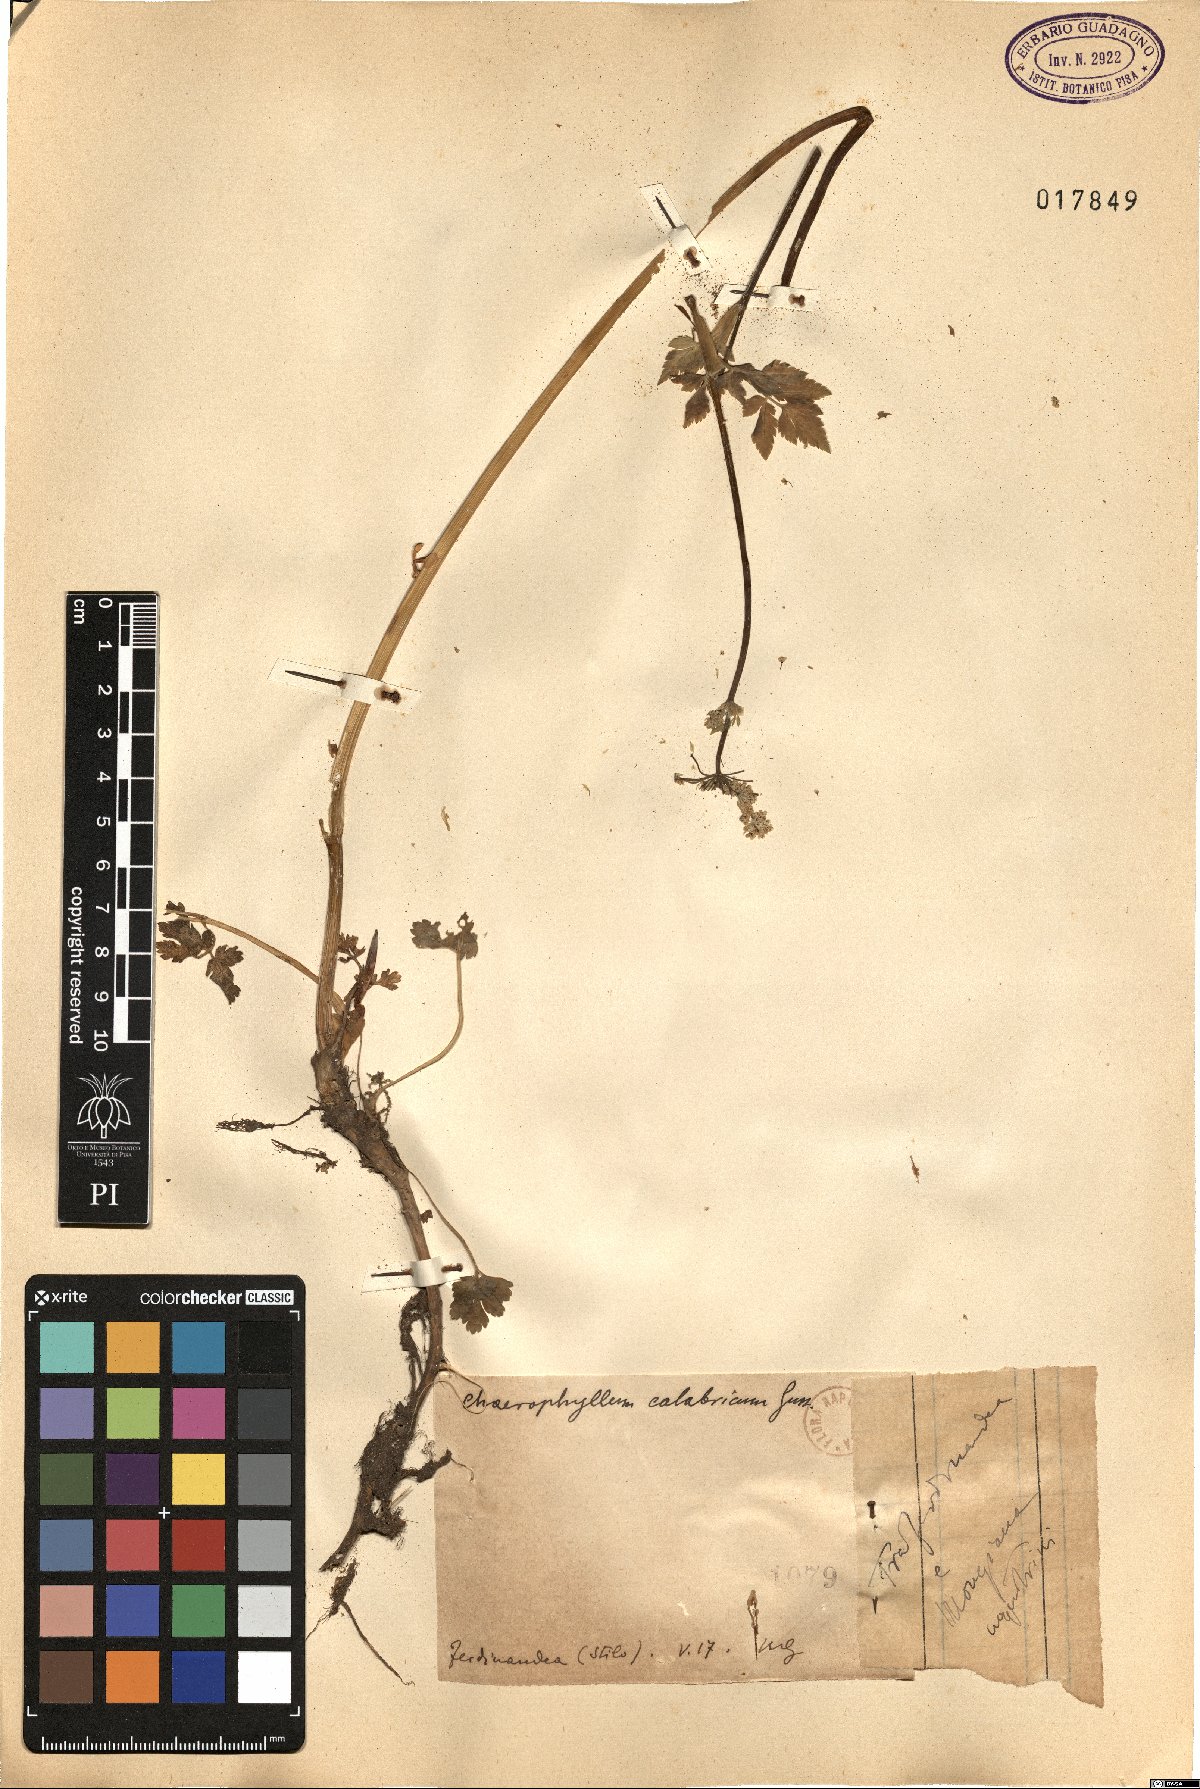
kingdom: Plantae
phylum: Tracheophyta
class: Magnoliopsida
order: Apiales
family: Apiaceae
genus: Chaerophyllum
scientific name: Chaerophyllum hirsutum
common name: Hairy chervil
